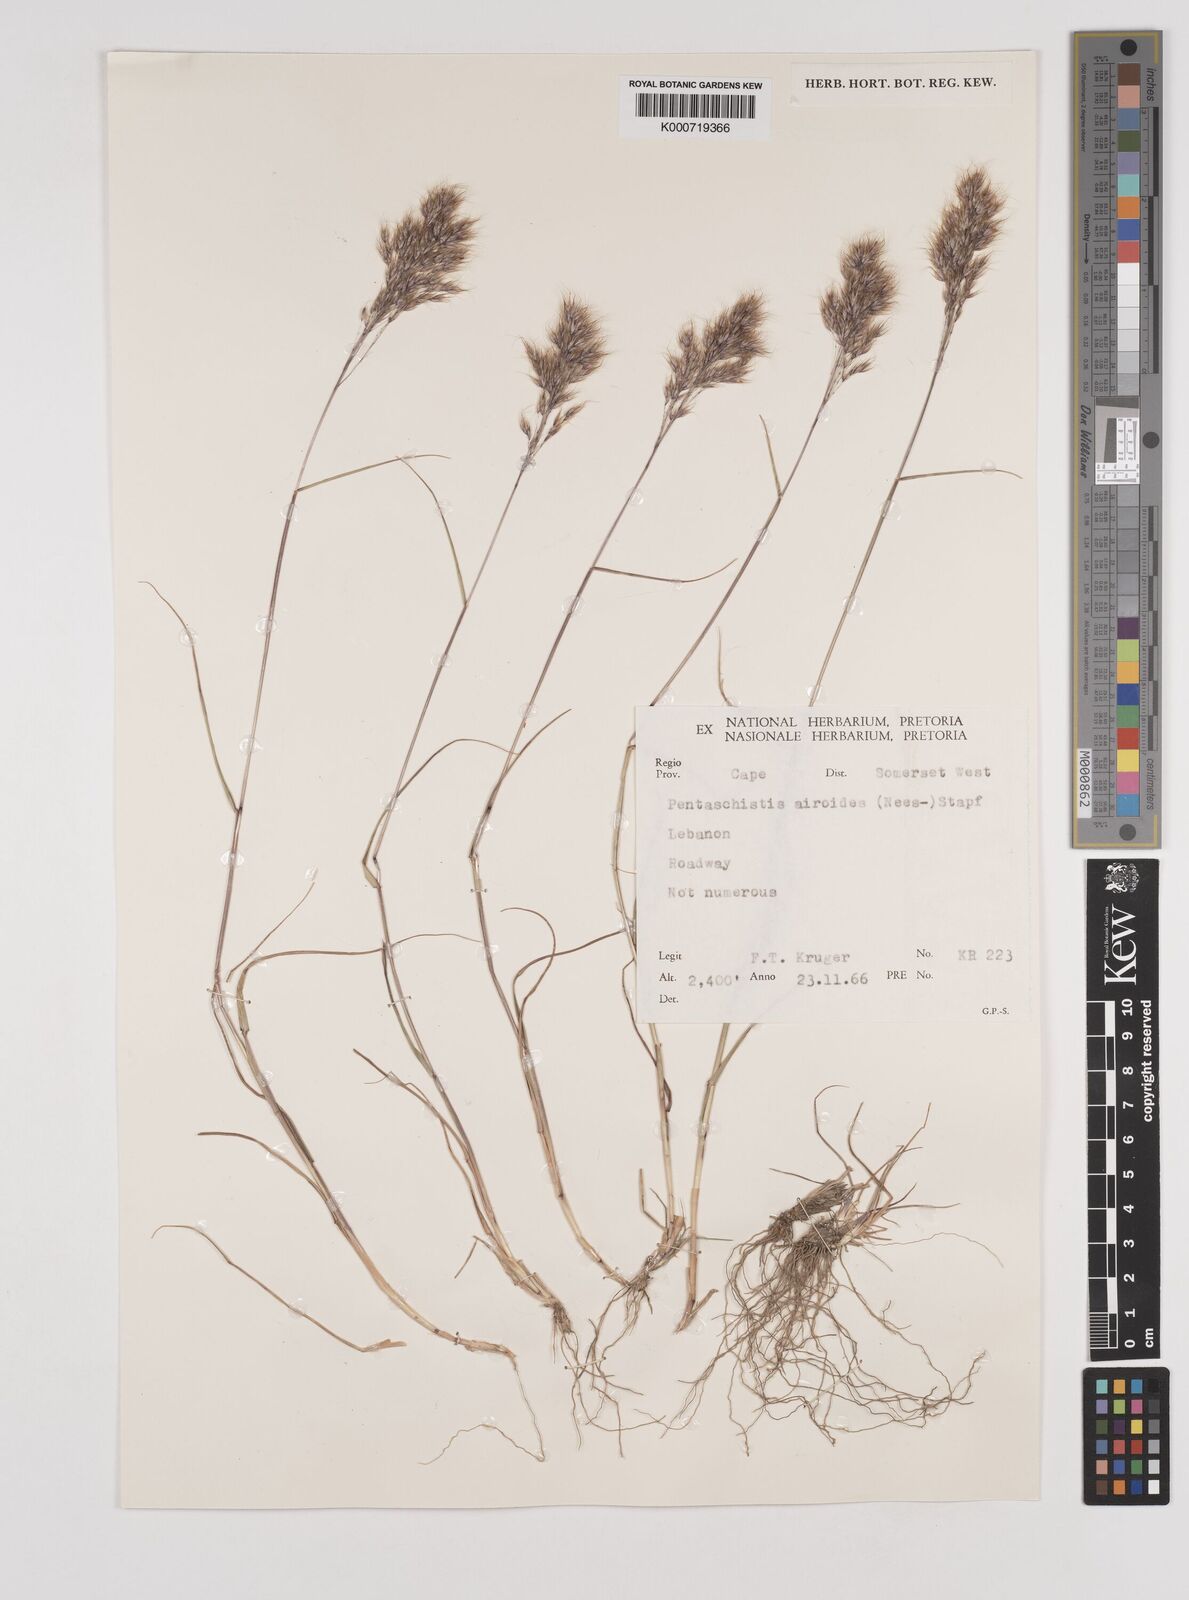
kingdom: Plantae
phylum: Tracheophyta
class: Liliopsida
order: Poales
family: Poaceae
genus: Pentameris
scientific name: Pentameris triseta
